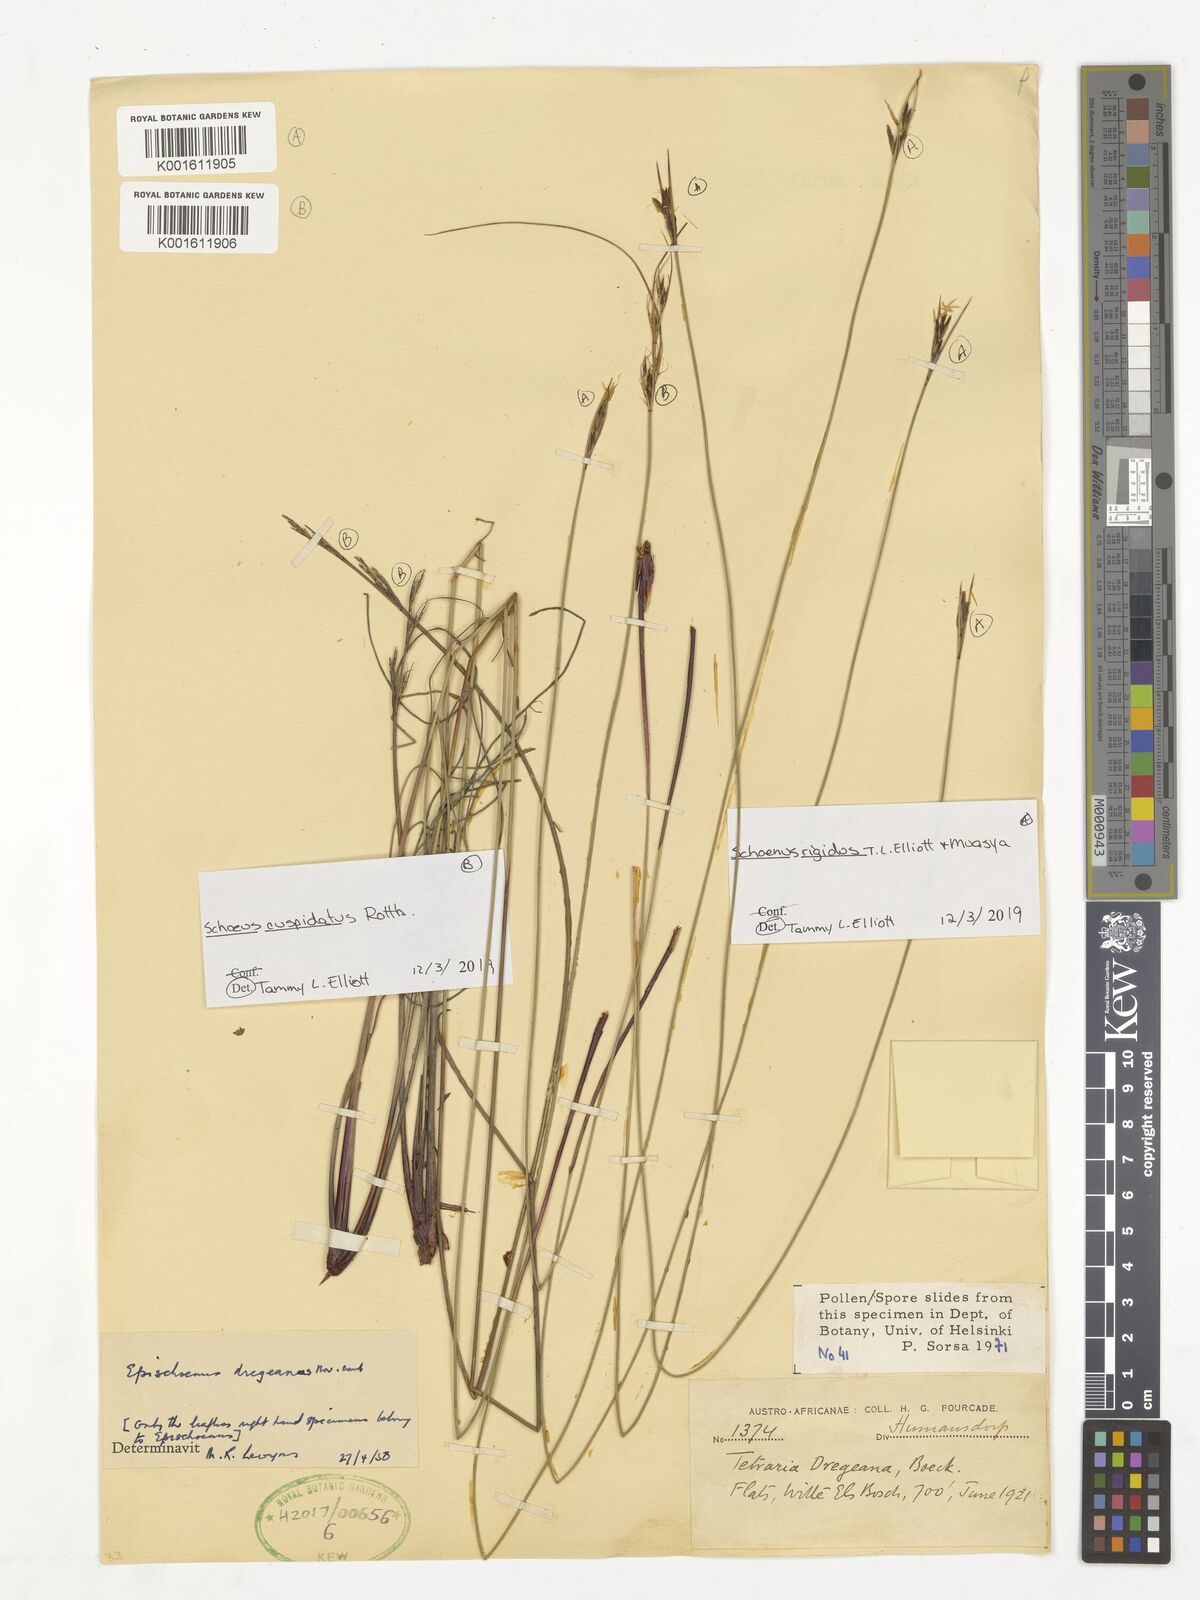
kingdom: Plantae
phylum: Tracheophyta
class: Liliopsida
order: Poales
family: Cyperaceae
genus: Schoenus
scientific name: Schoenus cuspidatus
